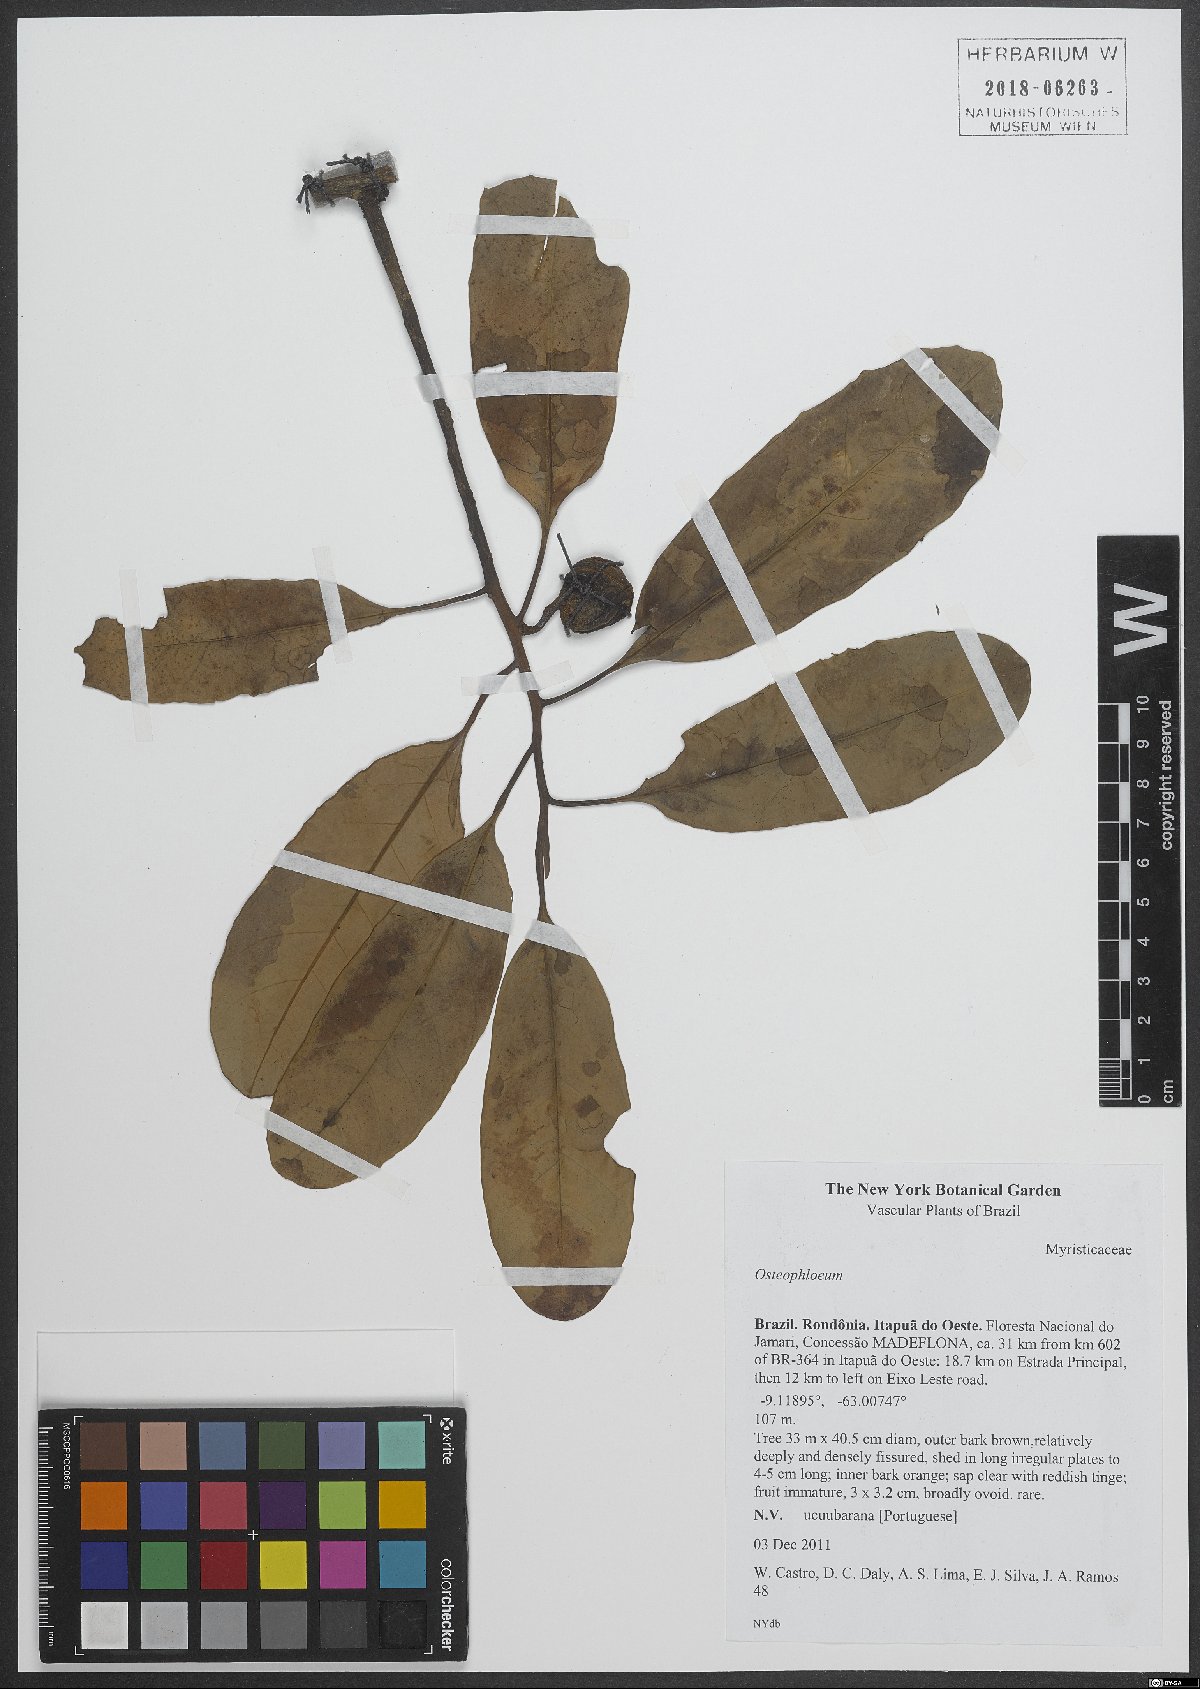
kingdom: Plantae
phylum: Tracheophyta
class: Magnoliopsida
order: Magnoliales
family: Myristicaceae
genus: Osteophloeum
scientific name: Osteophloeum
